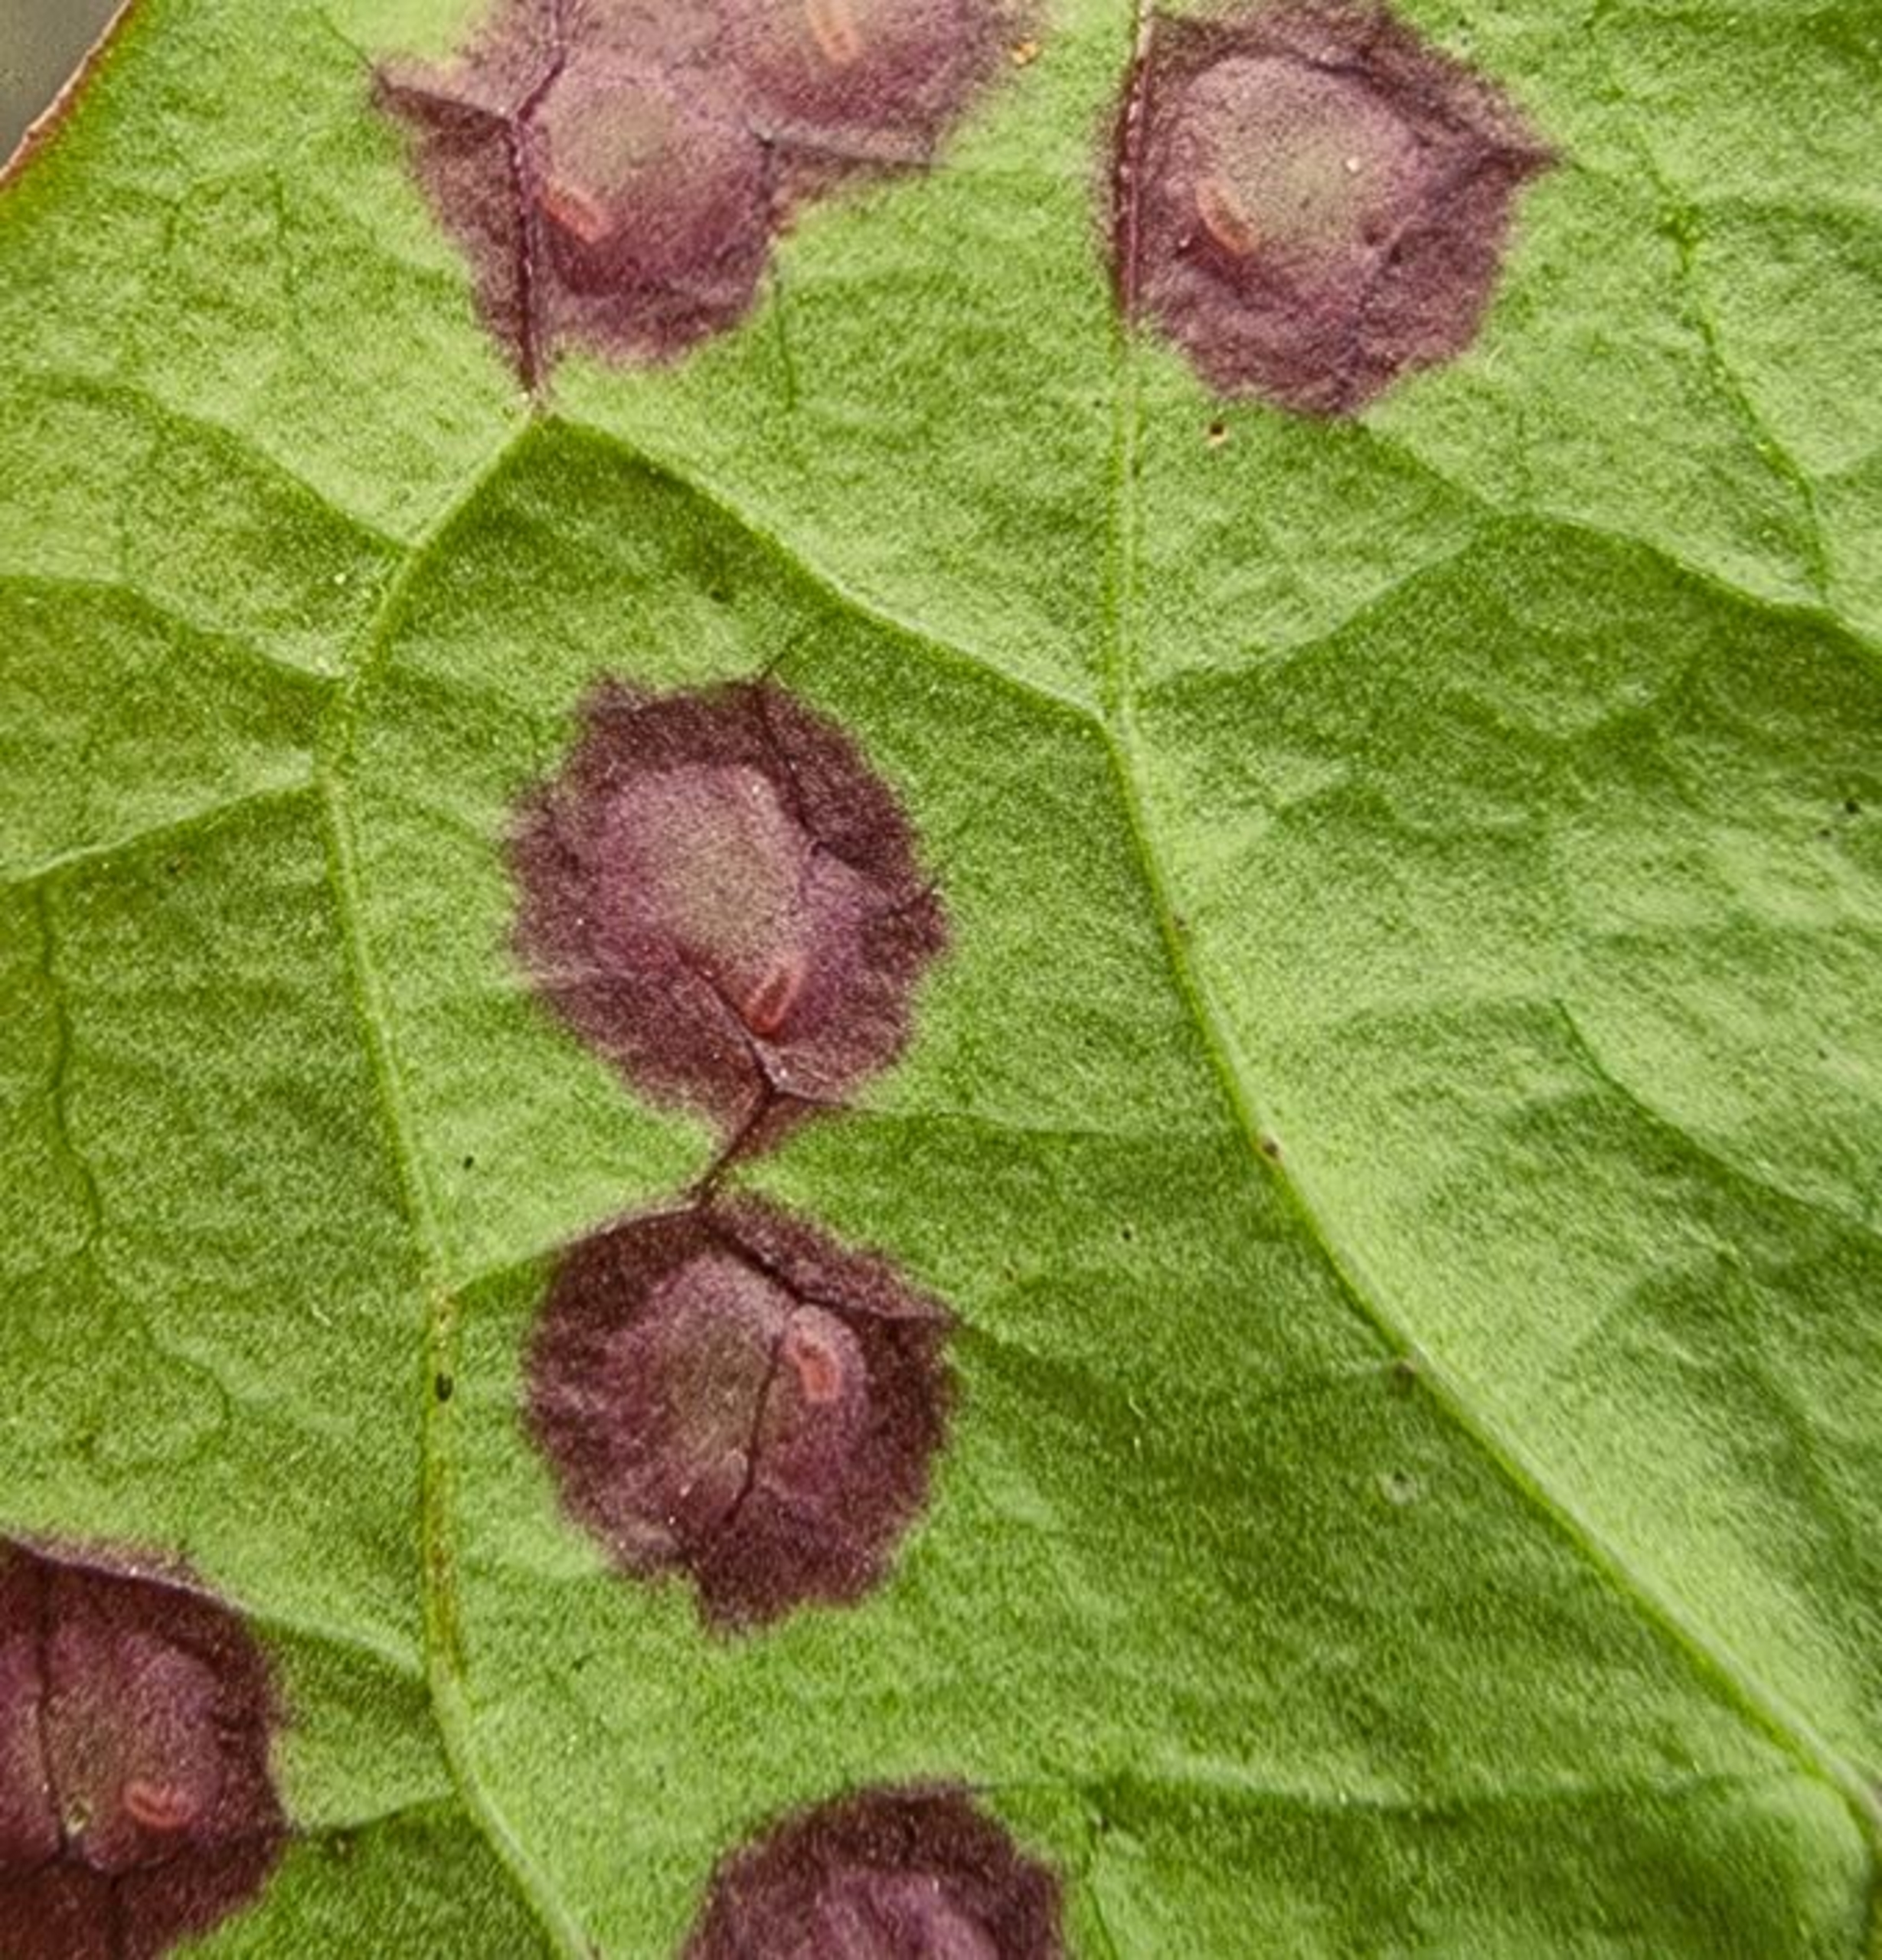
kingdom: Animalia
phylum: Arthropoda
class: Insecta
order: Diptera
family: Cecidomyiidae
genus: Cystiphora
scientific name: Cystiphora taraxaci
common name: Mælkebøttegalmyg
